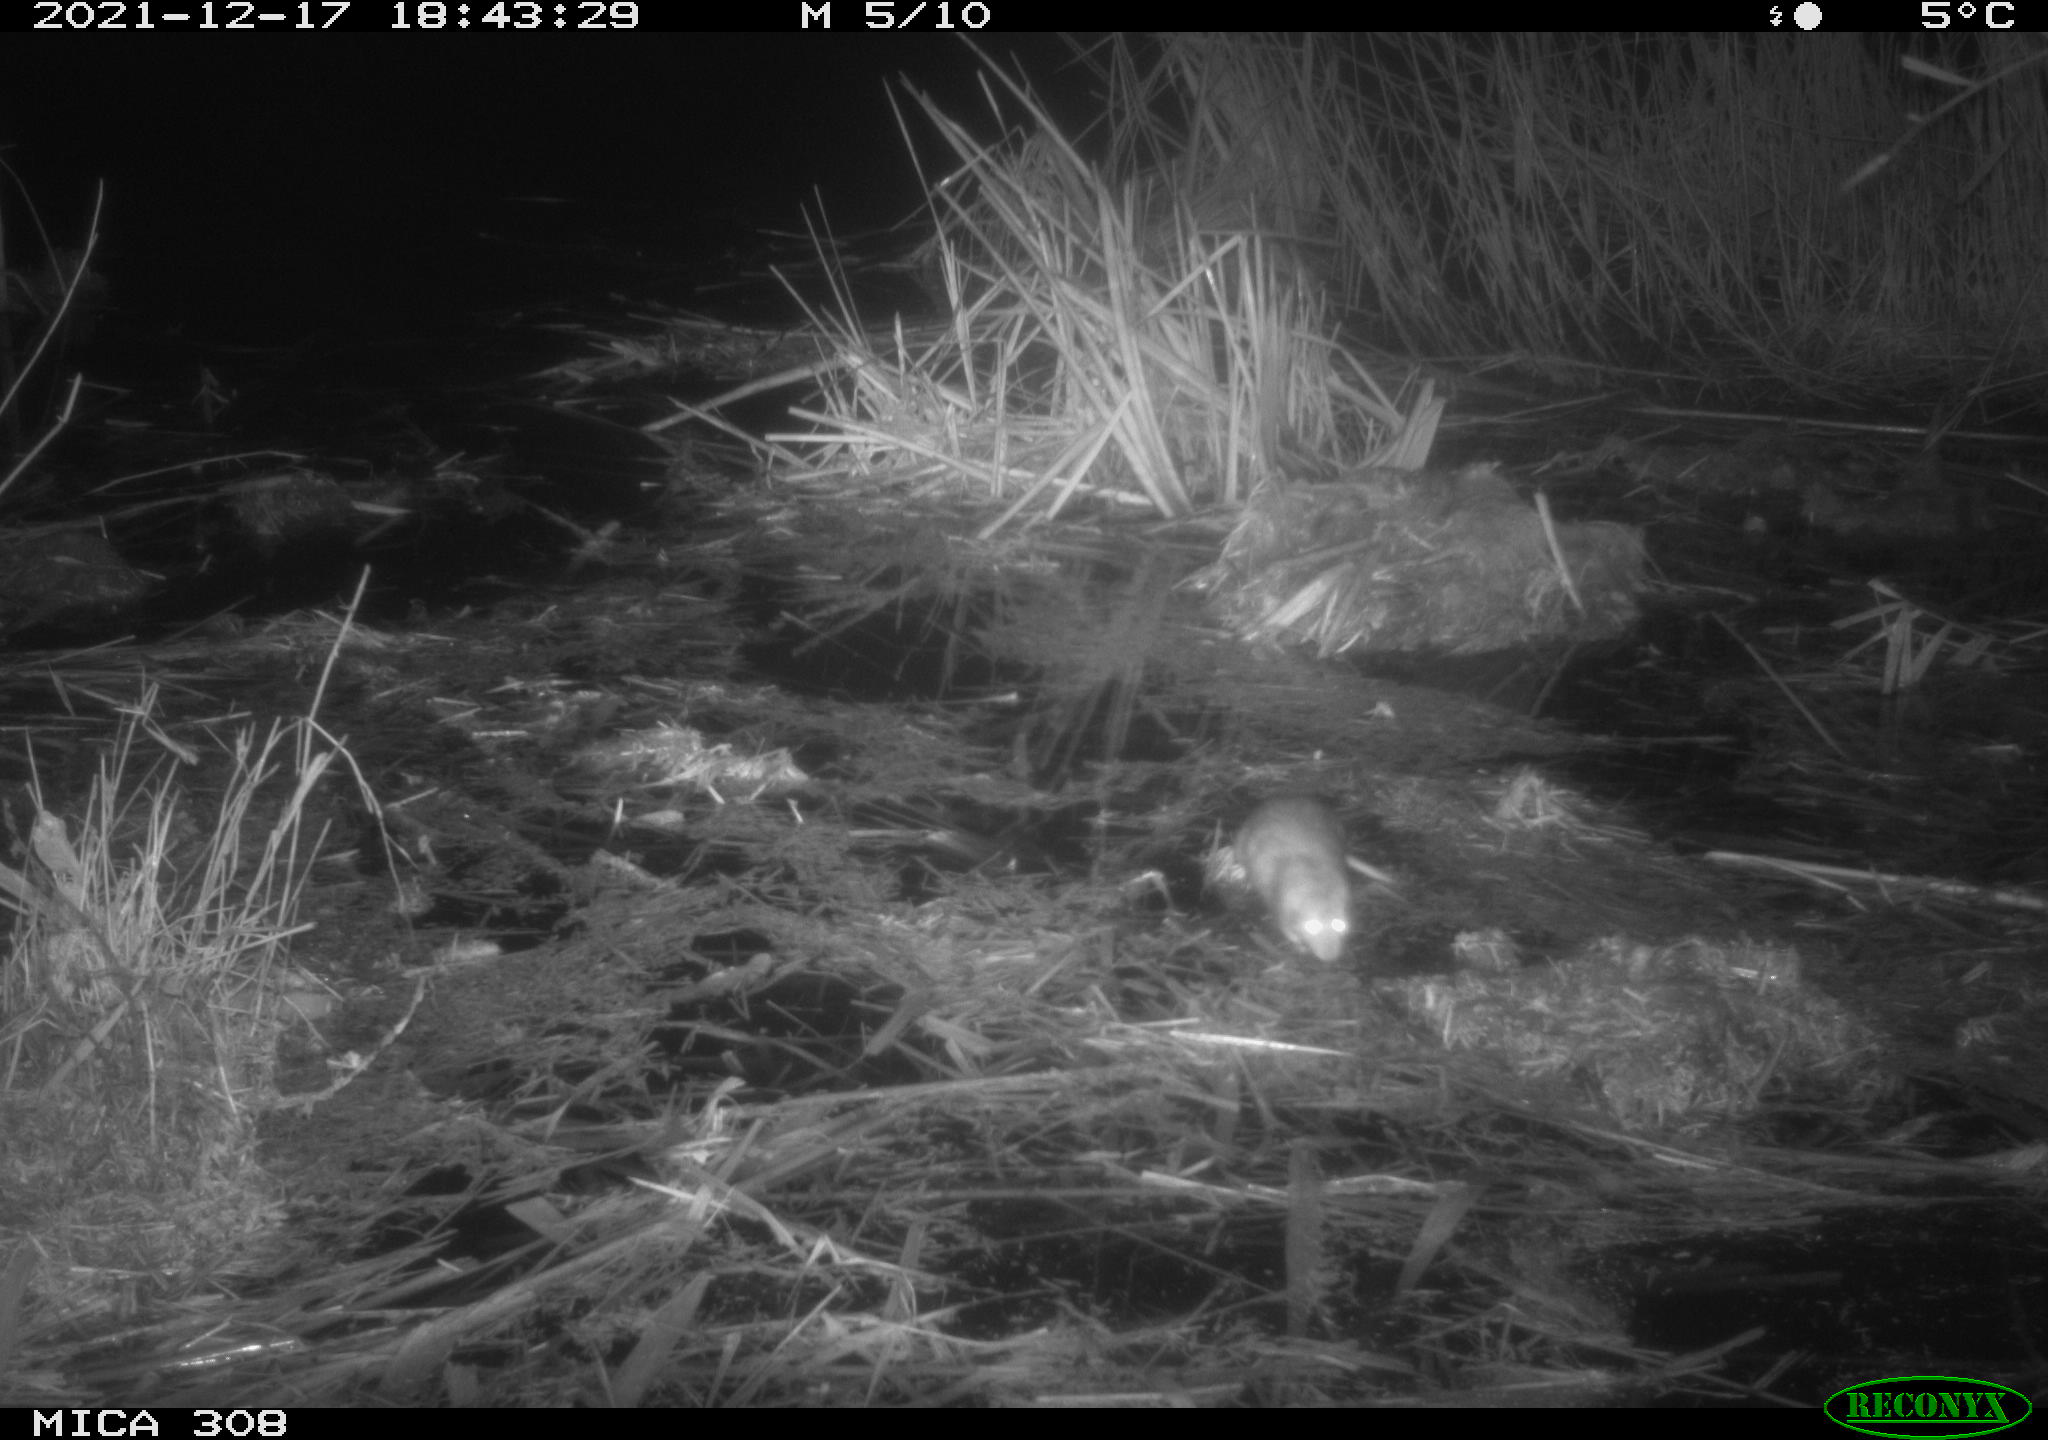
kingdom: Animalia
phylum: Chordata
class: Mammalia
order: Rodentia
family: Muridae
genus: Rattus
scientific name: Rattus norvegicus
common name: Brown rat
